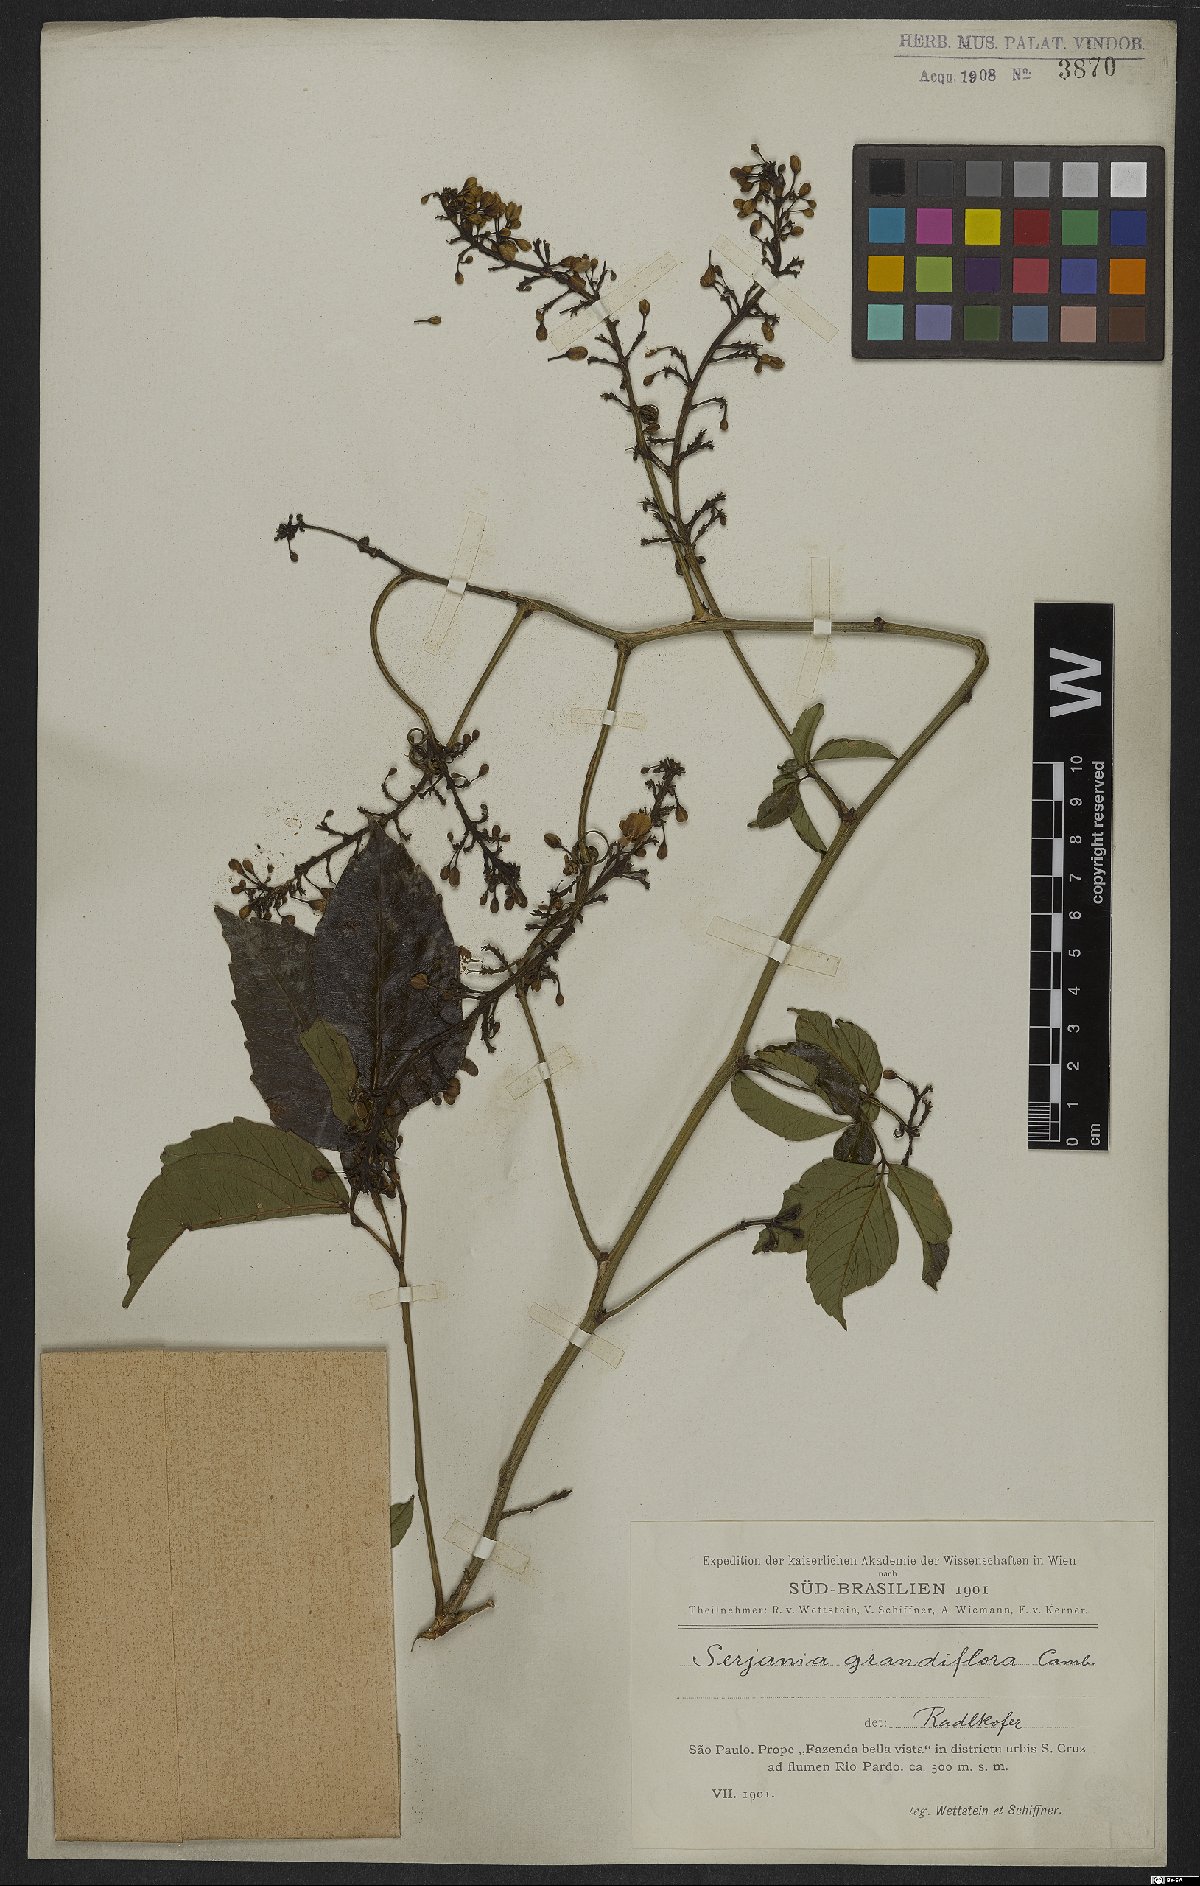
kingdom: Plantae
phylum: Tracheophyta
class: Magnoliopsida
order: Sapindales
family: Sapindaceae
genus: Serjania
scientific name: Serjania caracasana
